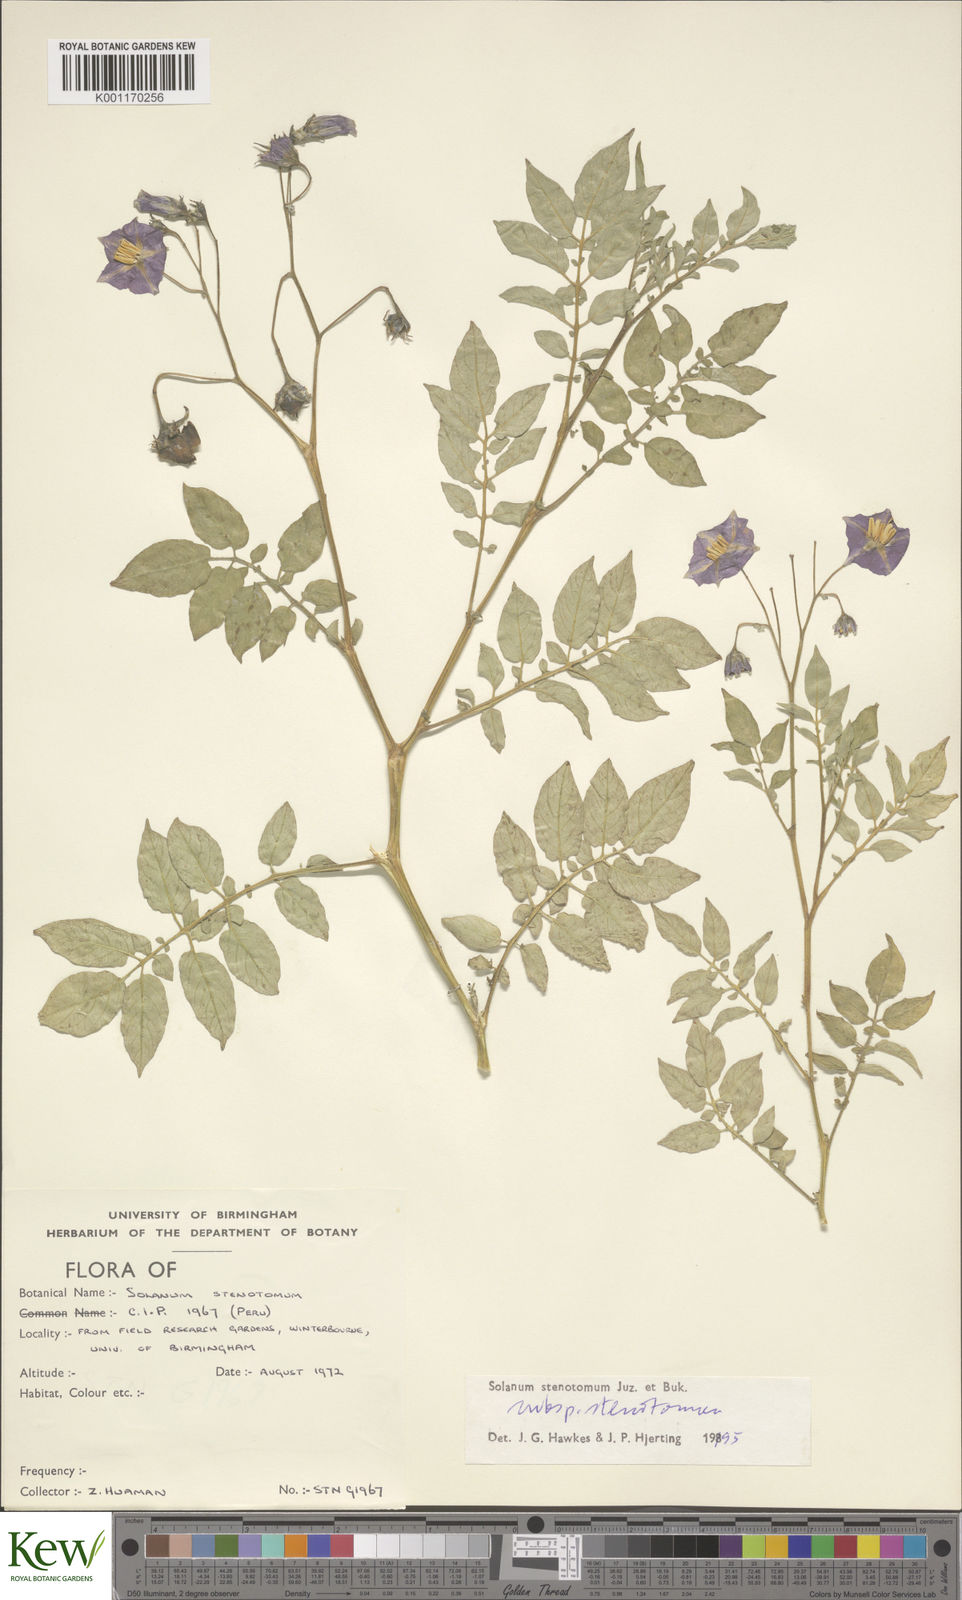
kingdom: Plantae
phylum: Tracheophyta
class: Magnoliopsida
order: Solanales
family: Solanaceae
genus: Solanum
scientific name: Solanum tuberosum
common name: Potato
